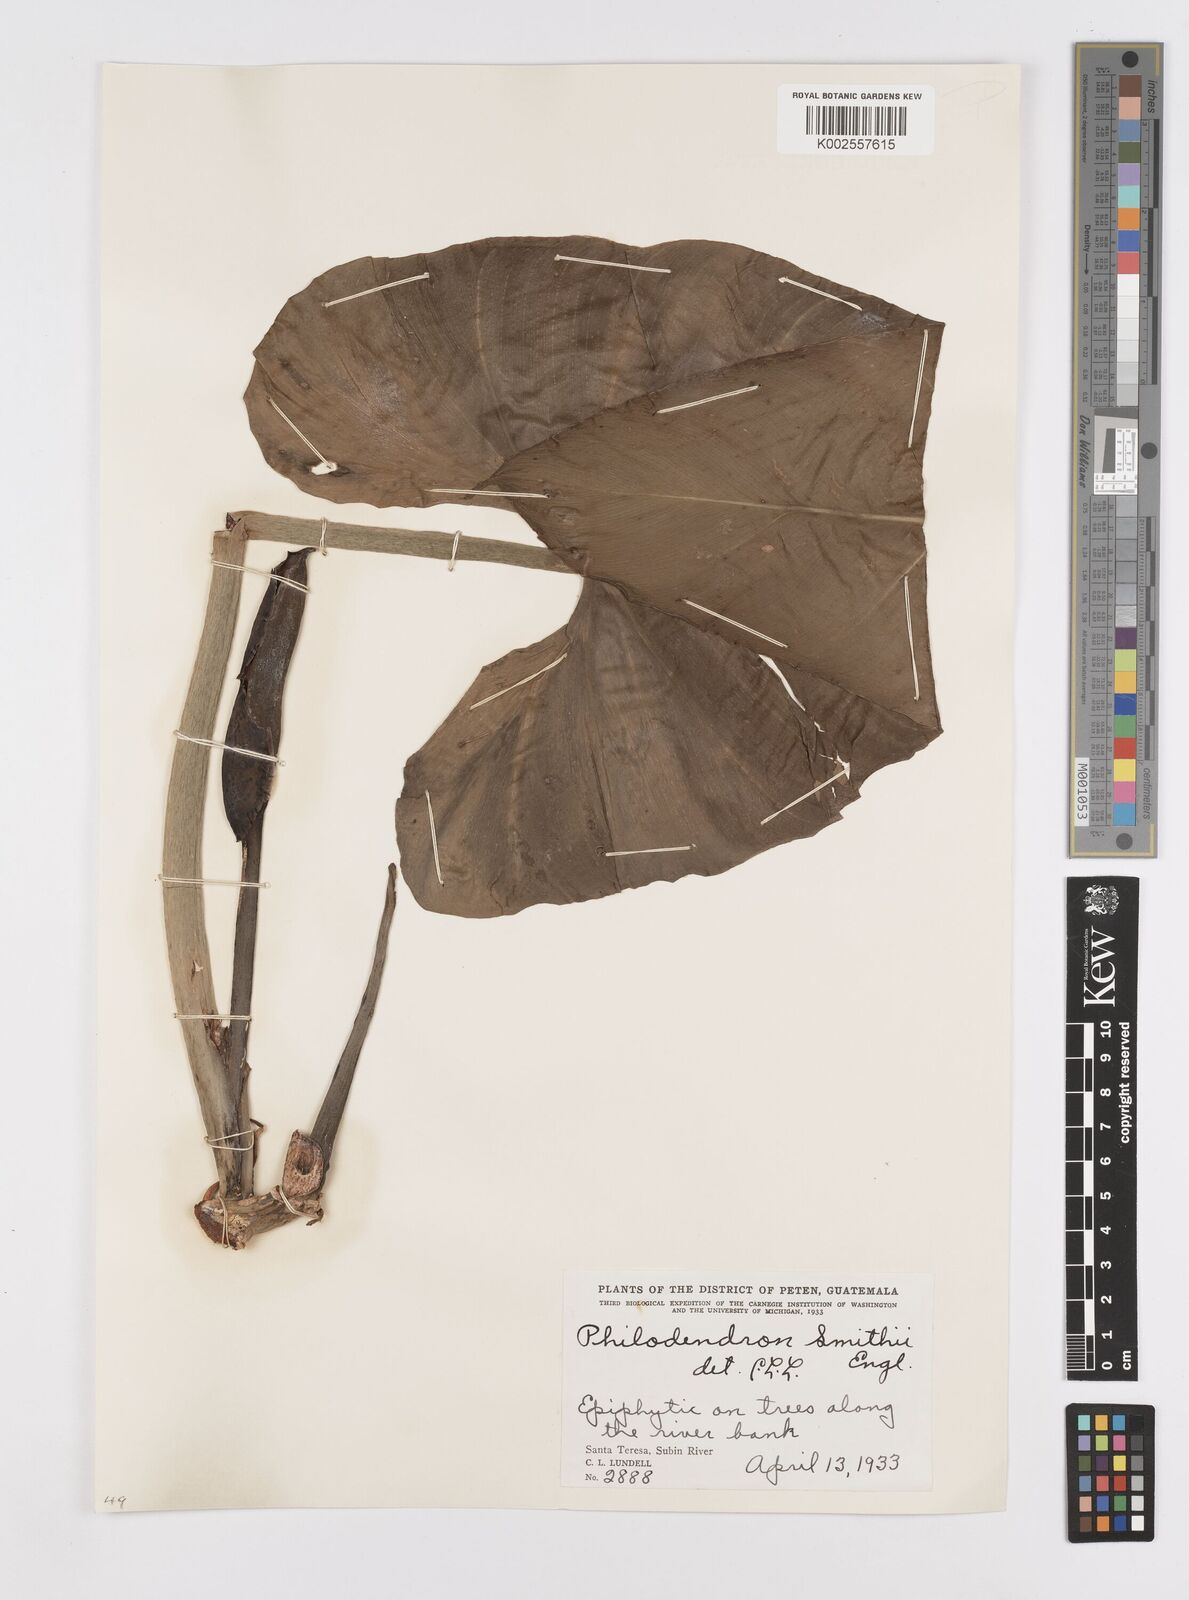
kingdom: Plantae
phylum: Tracheophyta
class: Liliopsida
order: Alismatales
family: Araceae
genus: Philodendron
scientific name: Philodendron smithii
